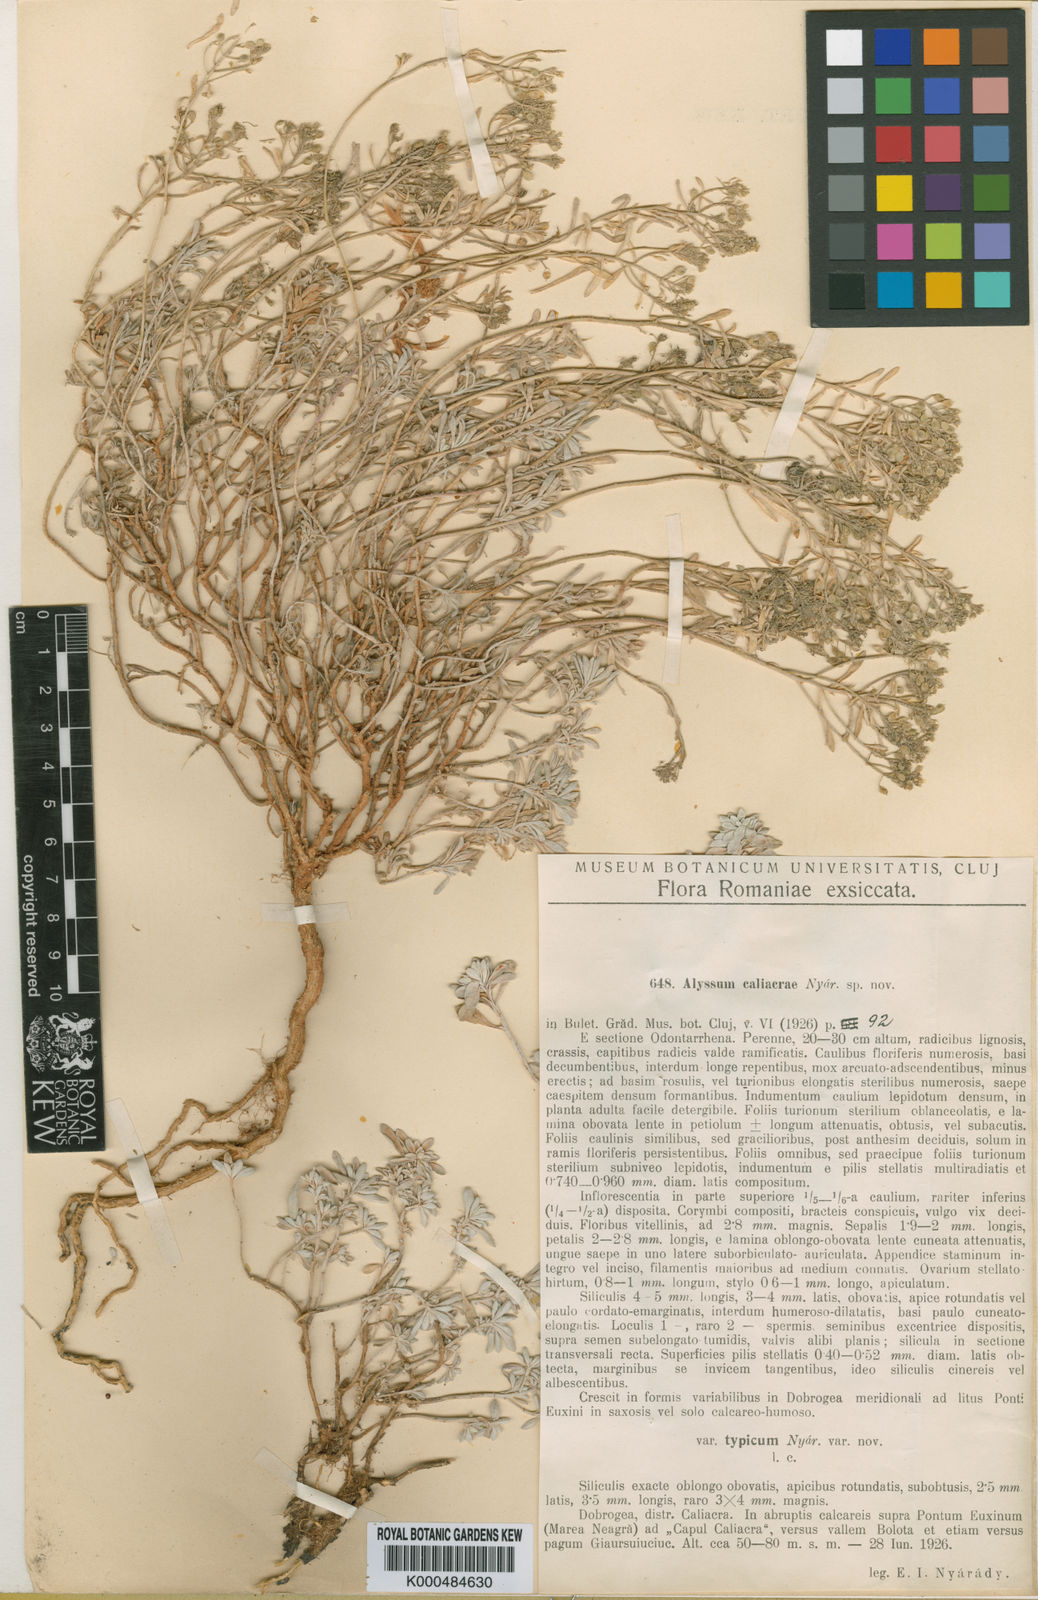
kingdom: Plantae
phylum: Tracheophyta
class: Magnoliopsida
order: Brassicales
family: Brassicaceae
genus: Odontarrhena
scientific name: Odontarrhena caliacrae
